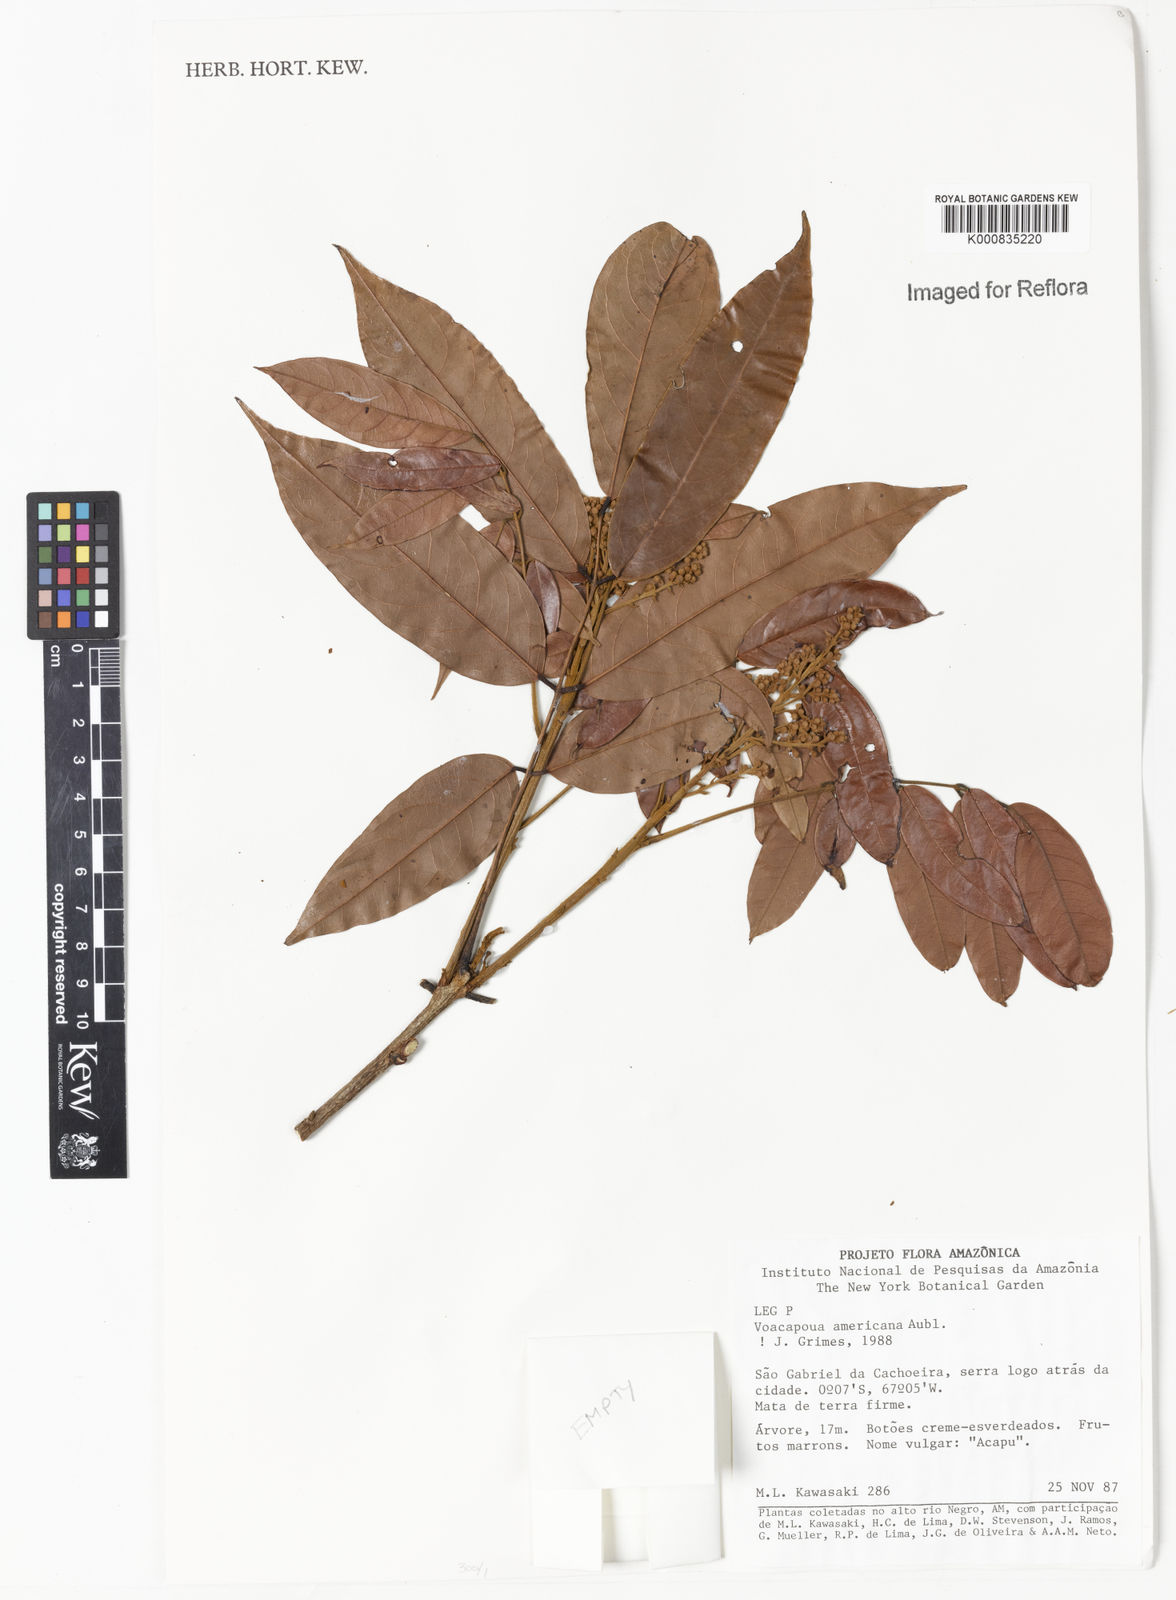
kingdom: Plantae
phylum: Tracheophyta
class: Magnoliopsida
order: Fabales
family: Fabaceae
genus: Vouacapoua
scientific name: Vouacapoua americana
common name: Partridgewood
